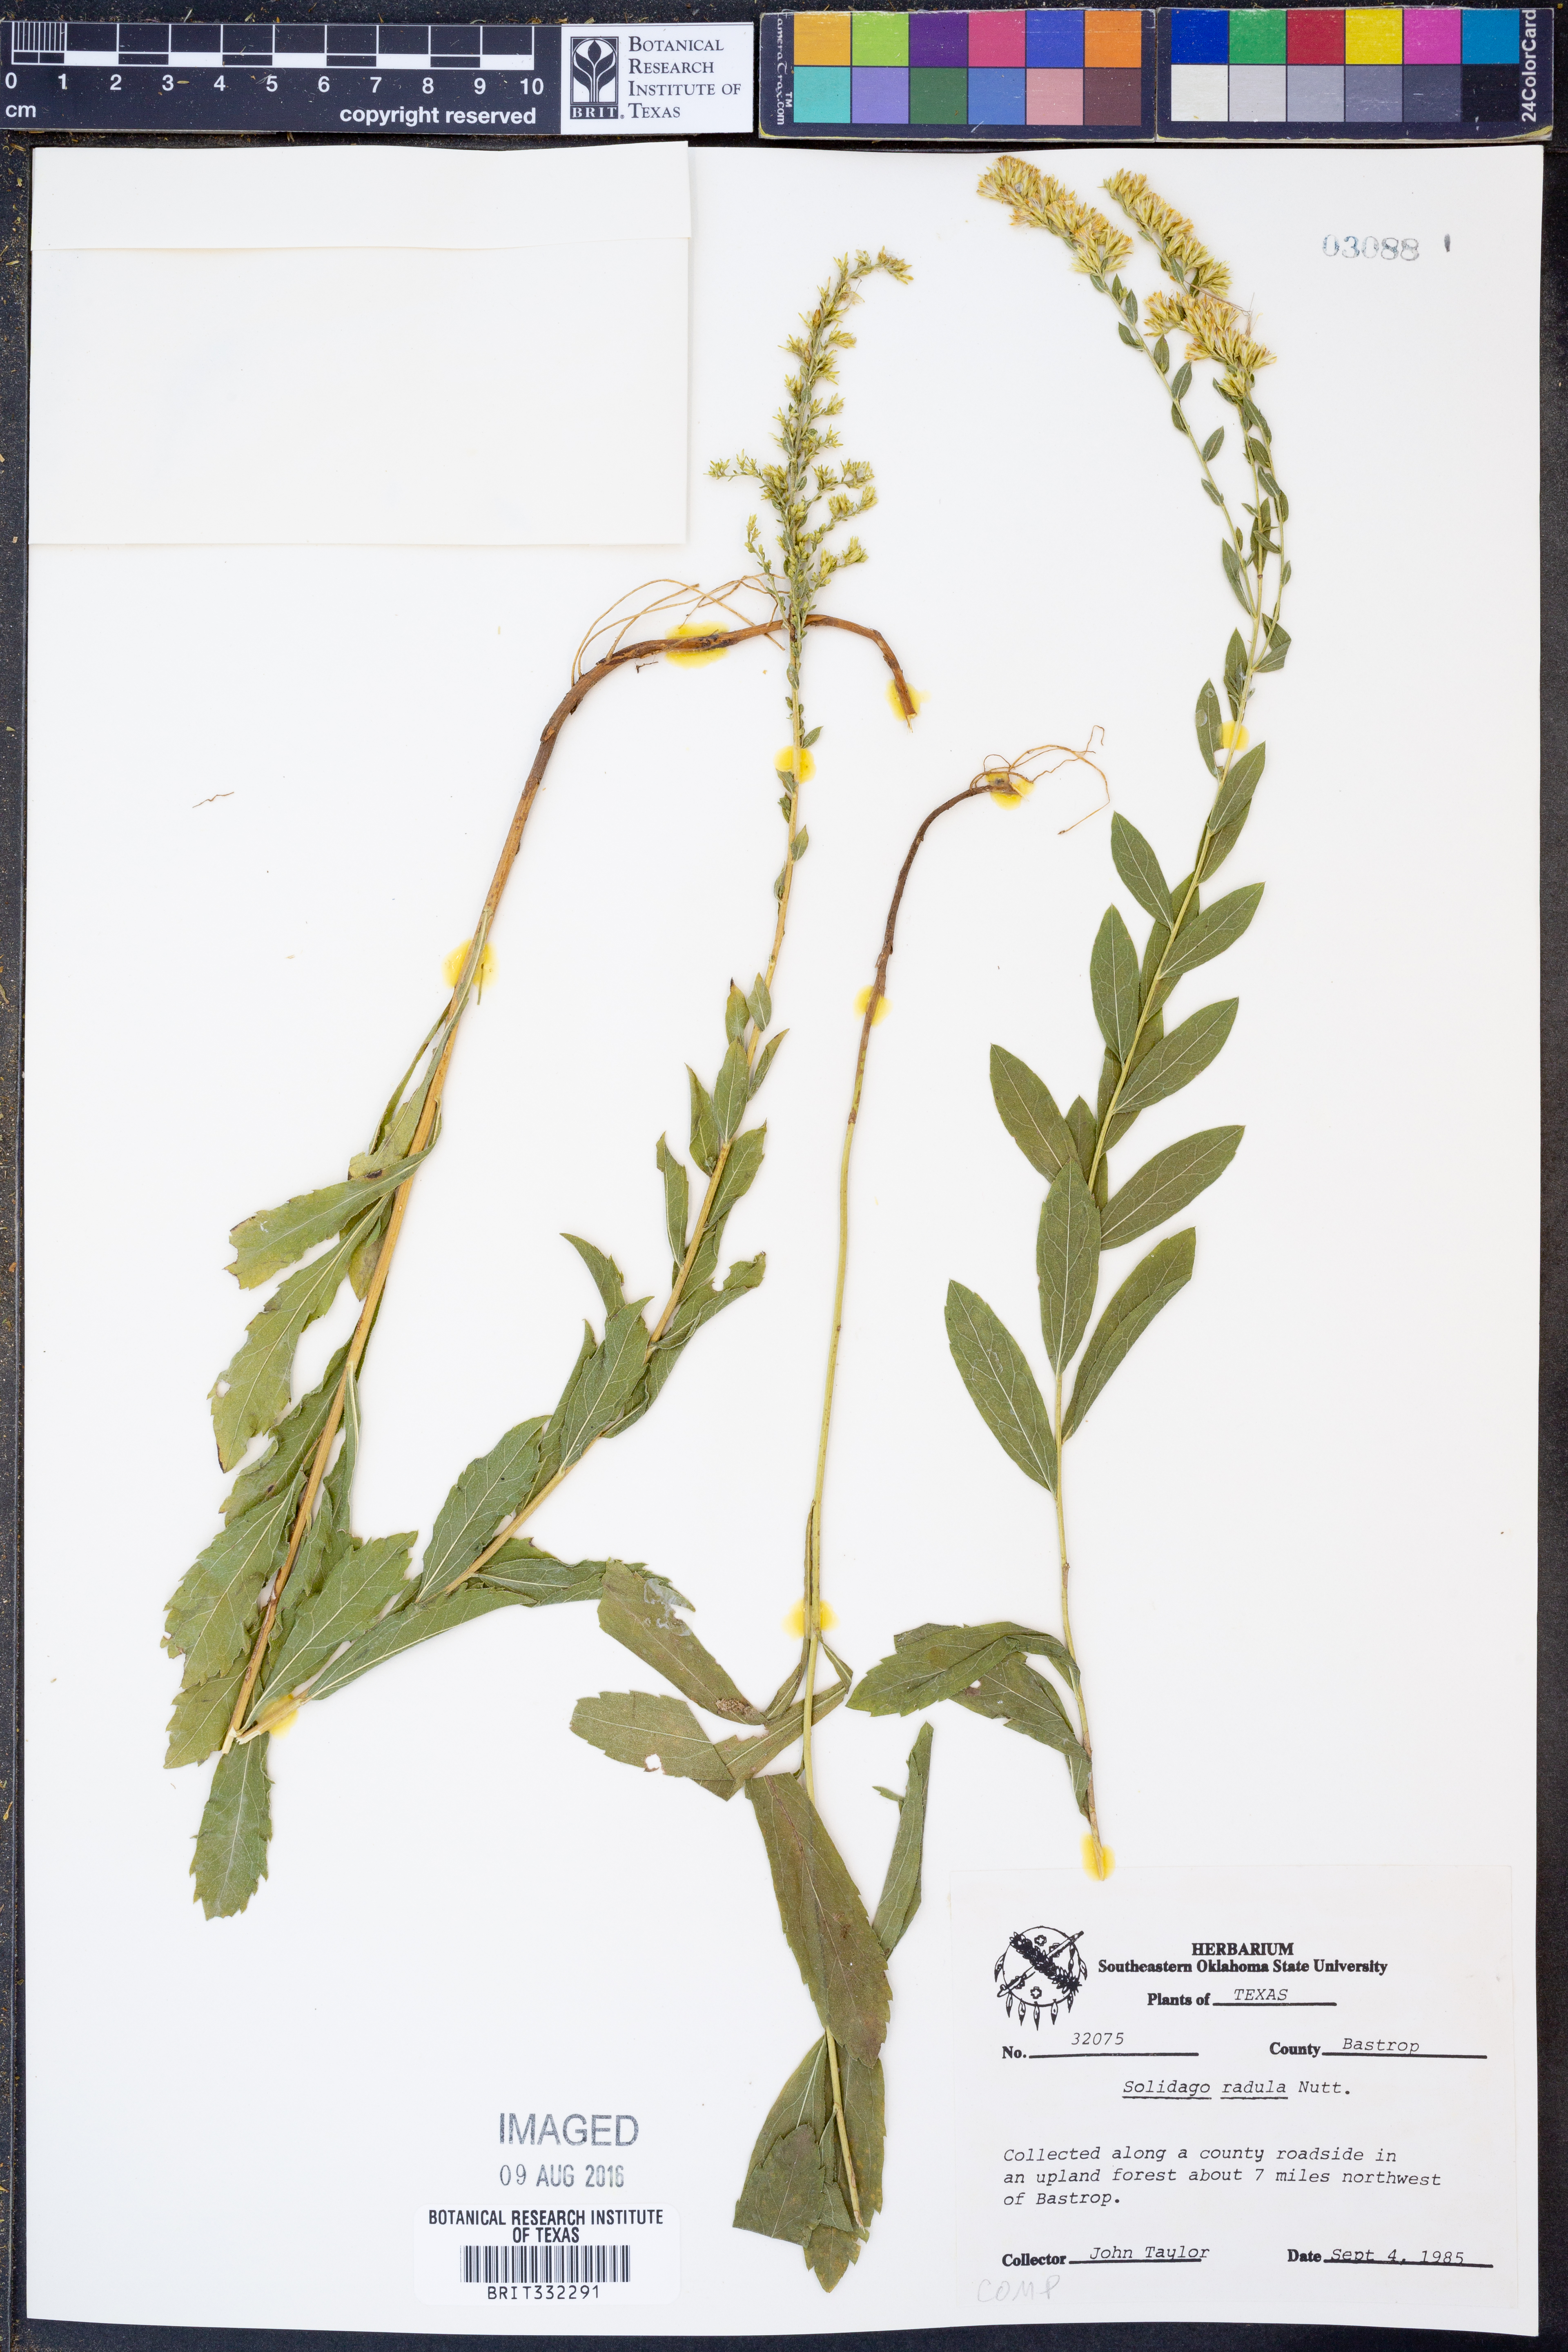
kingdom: Plantae
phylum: Tracheophyta
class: Magnoliopsida
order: Asterales
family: Asteraceae
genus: Solidago
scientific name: Solidago radula
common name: Western rough goldenrod
